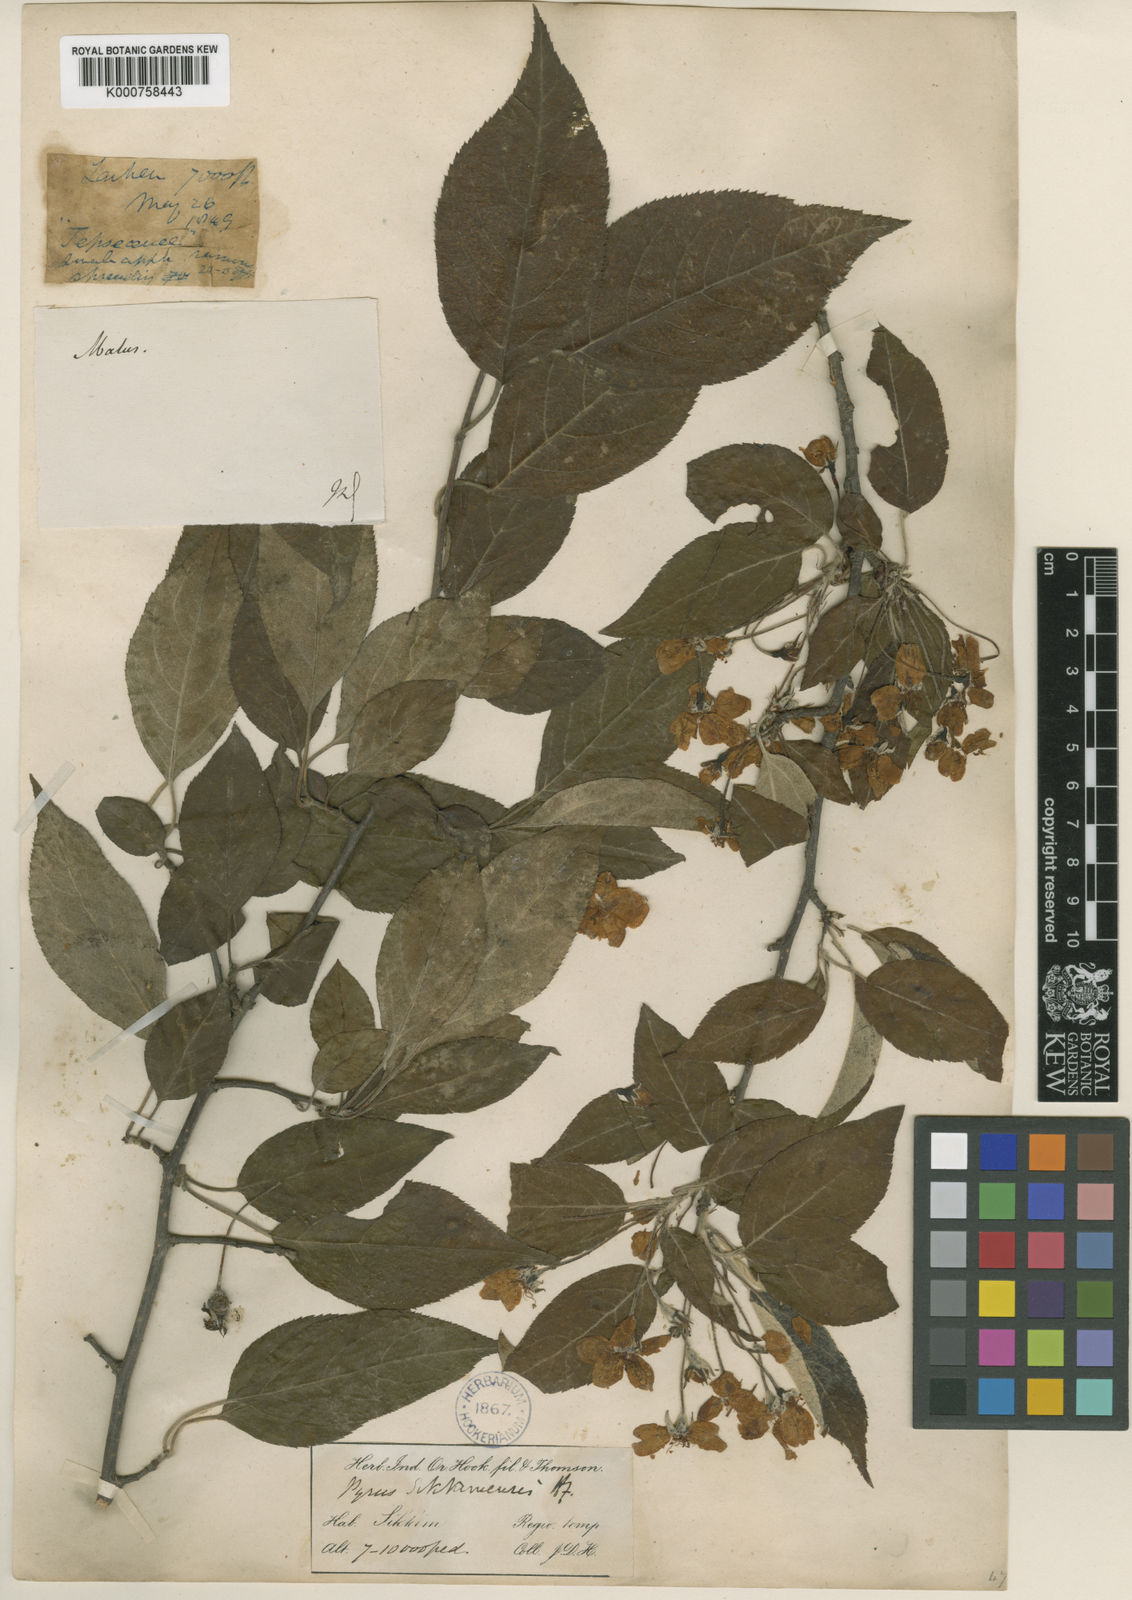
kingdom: Plantae
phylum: Tracheophyta
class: Magnoliopsida
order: Rosales
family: Rosaceae
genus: Malus
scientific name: Malus sikkimensis
